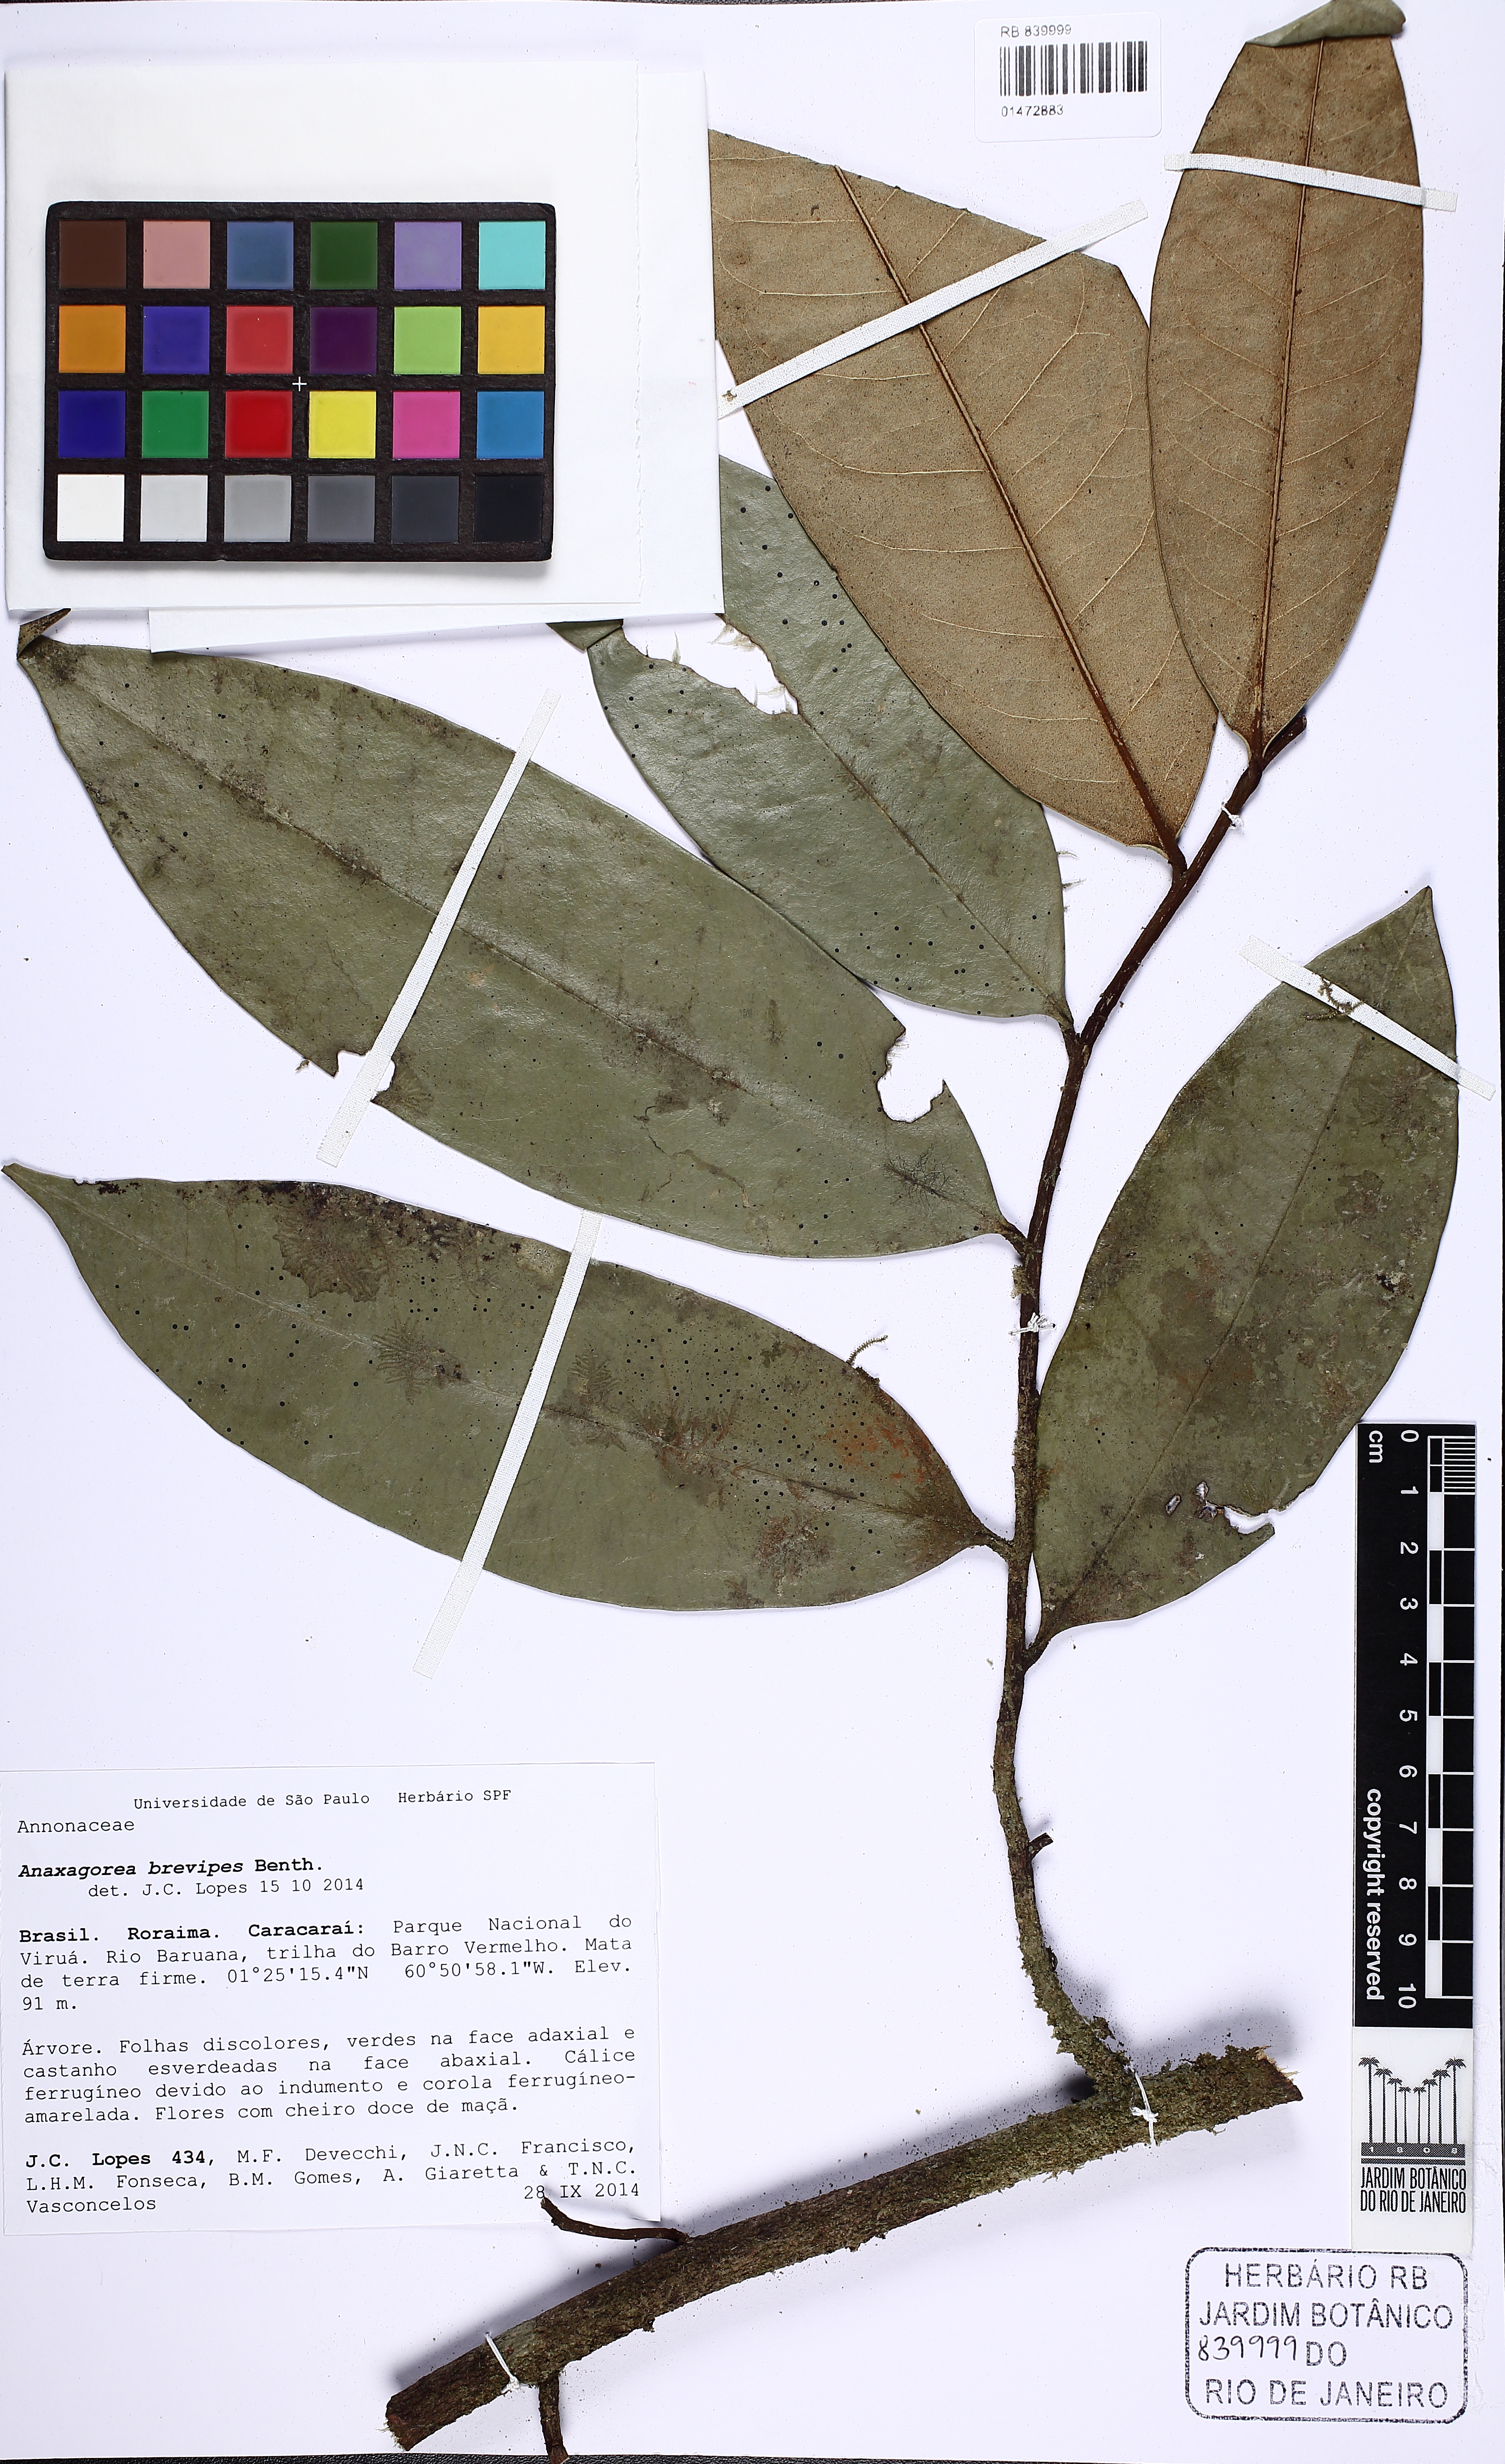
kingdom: Plantae
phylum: Tracheophyta
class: Magnoliopsida
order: Magnoliales
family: Annonaceae
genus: Anaxagorea
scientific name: Anaxagorea brevipes
